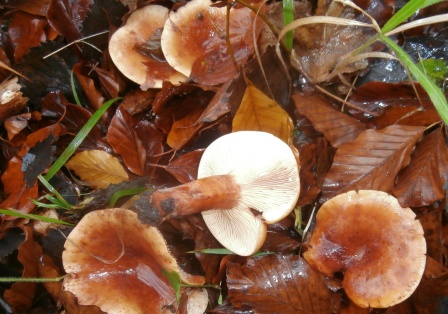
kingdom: Fungi
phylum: Basidiomycota
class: Agaricomycetes
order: Russulales
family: Russulaceae
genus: Lactarius
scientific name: Lactarius subdulcis
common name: sødlig mælkehat
